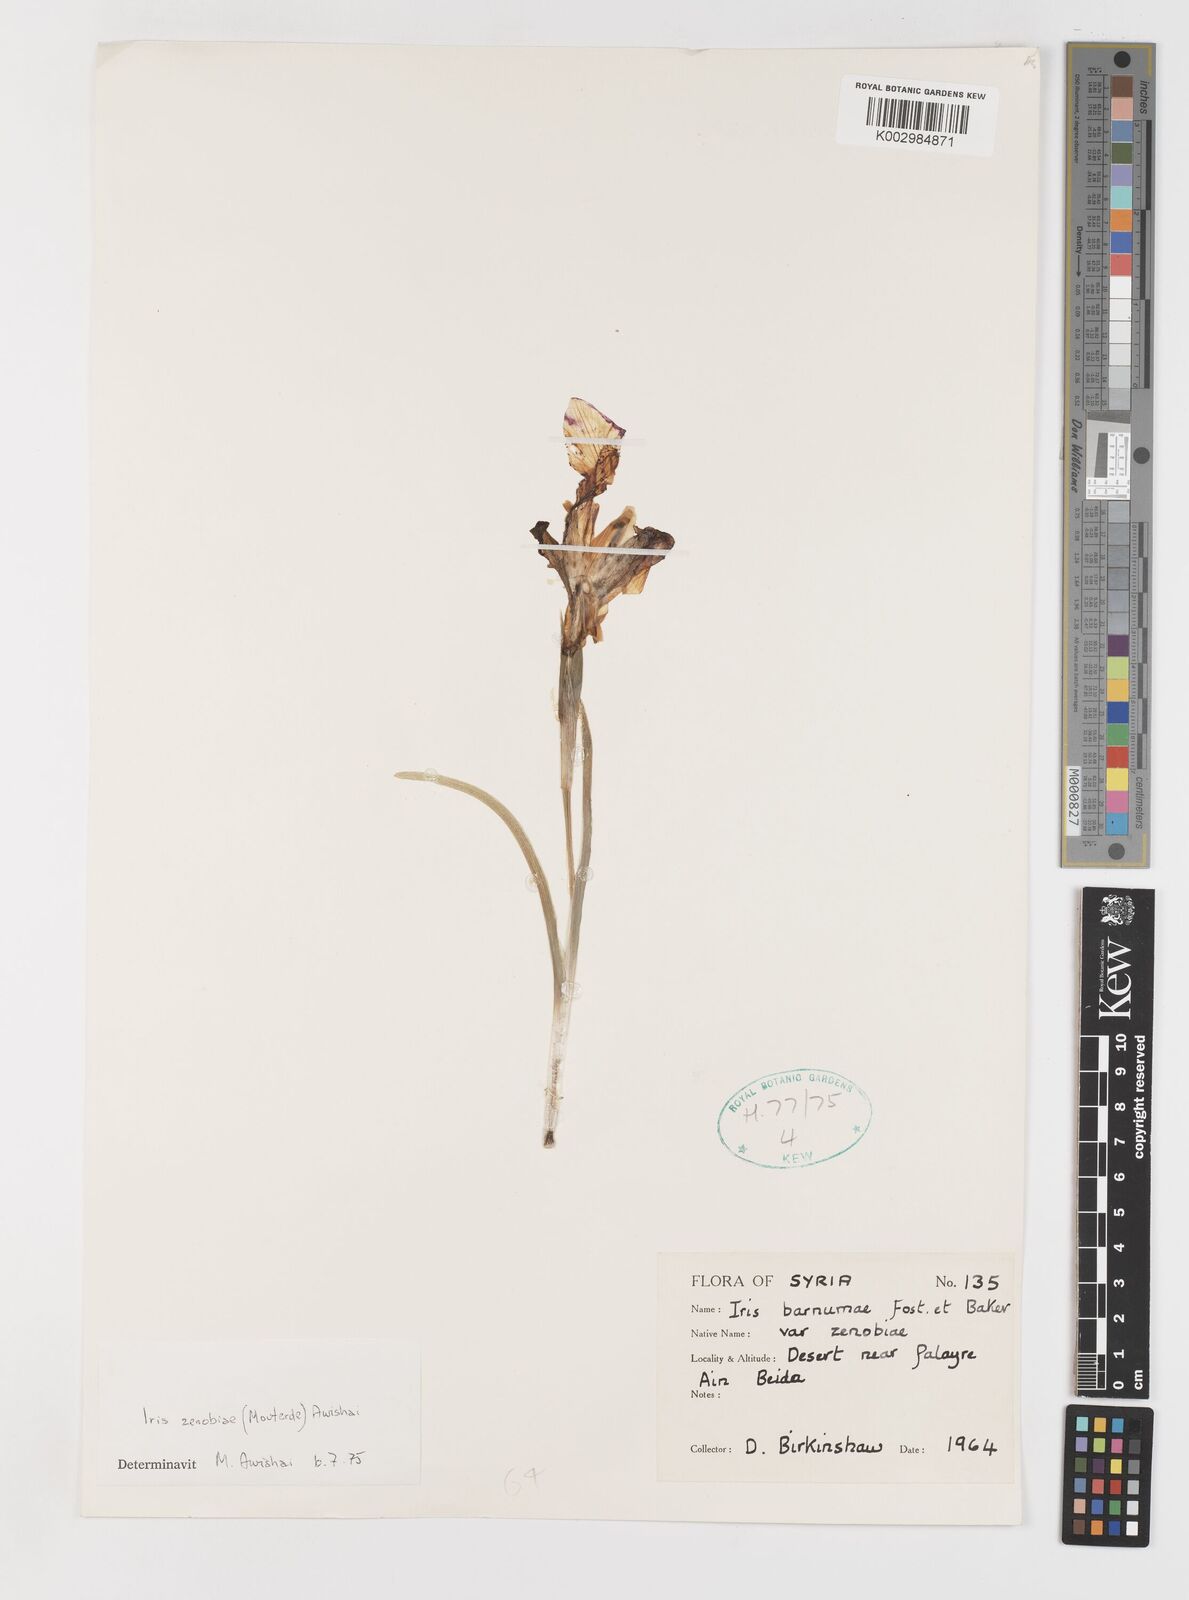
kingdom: Plantae
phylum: Tracheophyta
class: Liliopsida
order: Asparagales
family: Iridaceae
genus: Iris
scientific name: Iris assadiana
